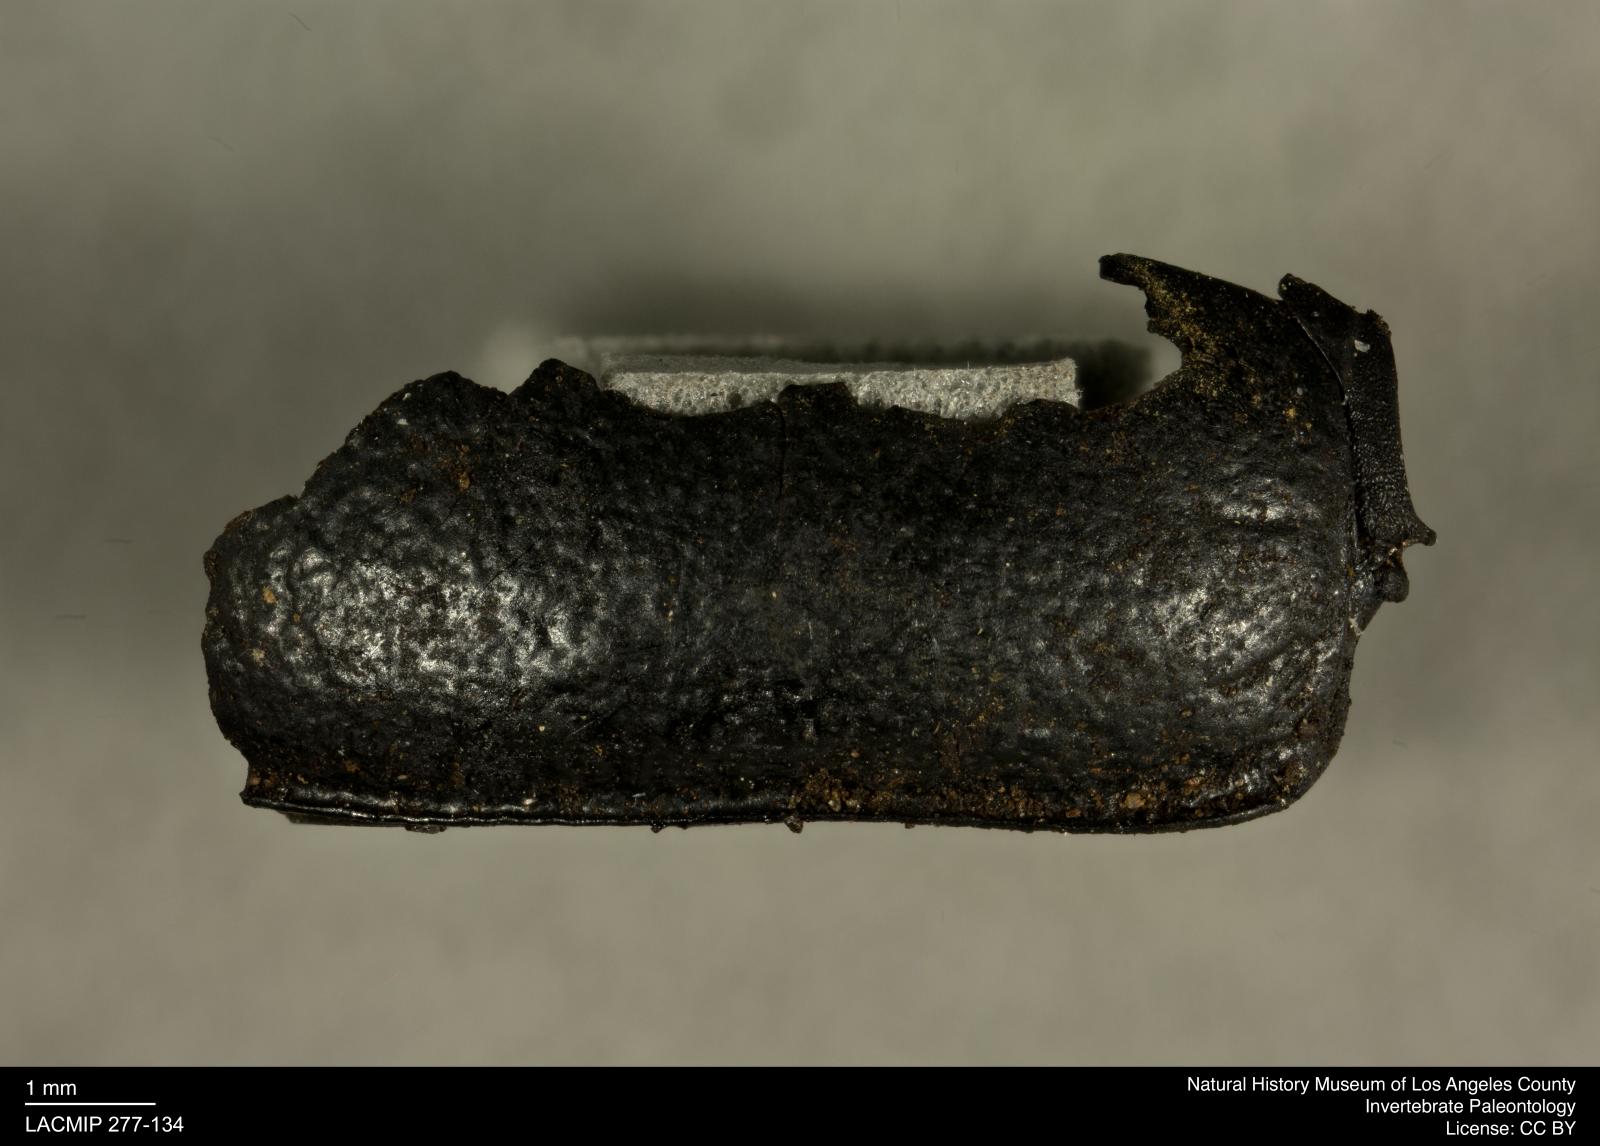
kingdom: Animalia
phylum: Arthropoda
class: Insecta
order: Coleoptera
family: Tenebrionidae
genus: Coniontis
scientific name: Coniontis abdominalis
